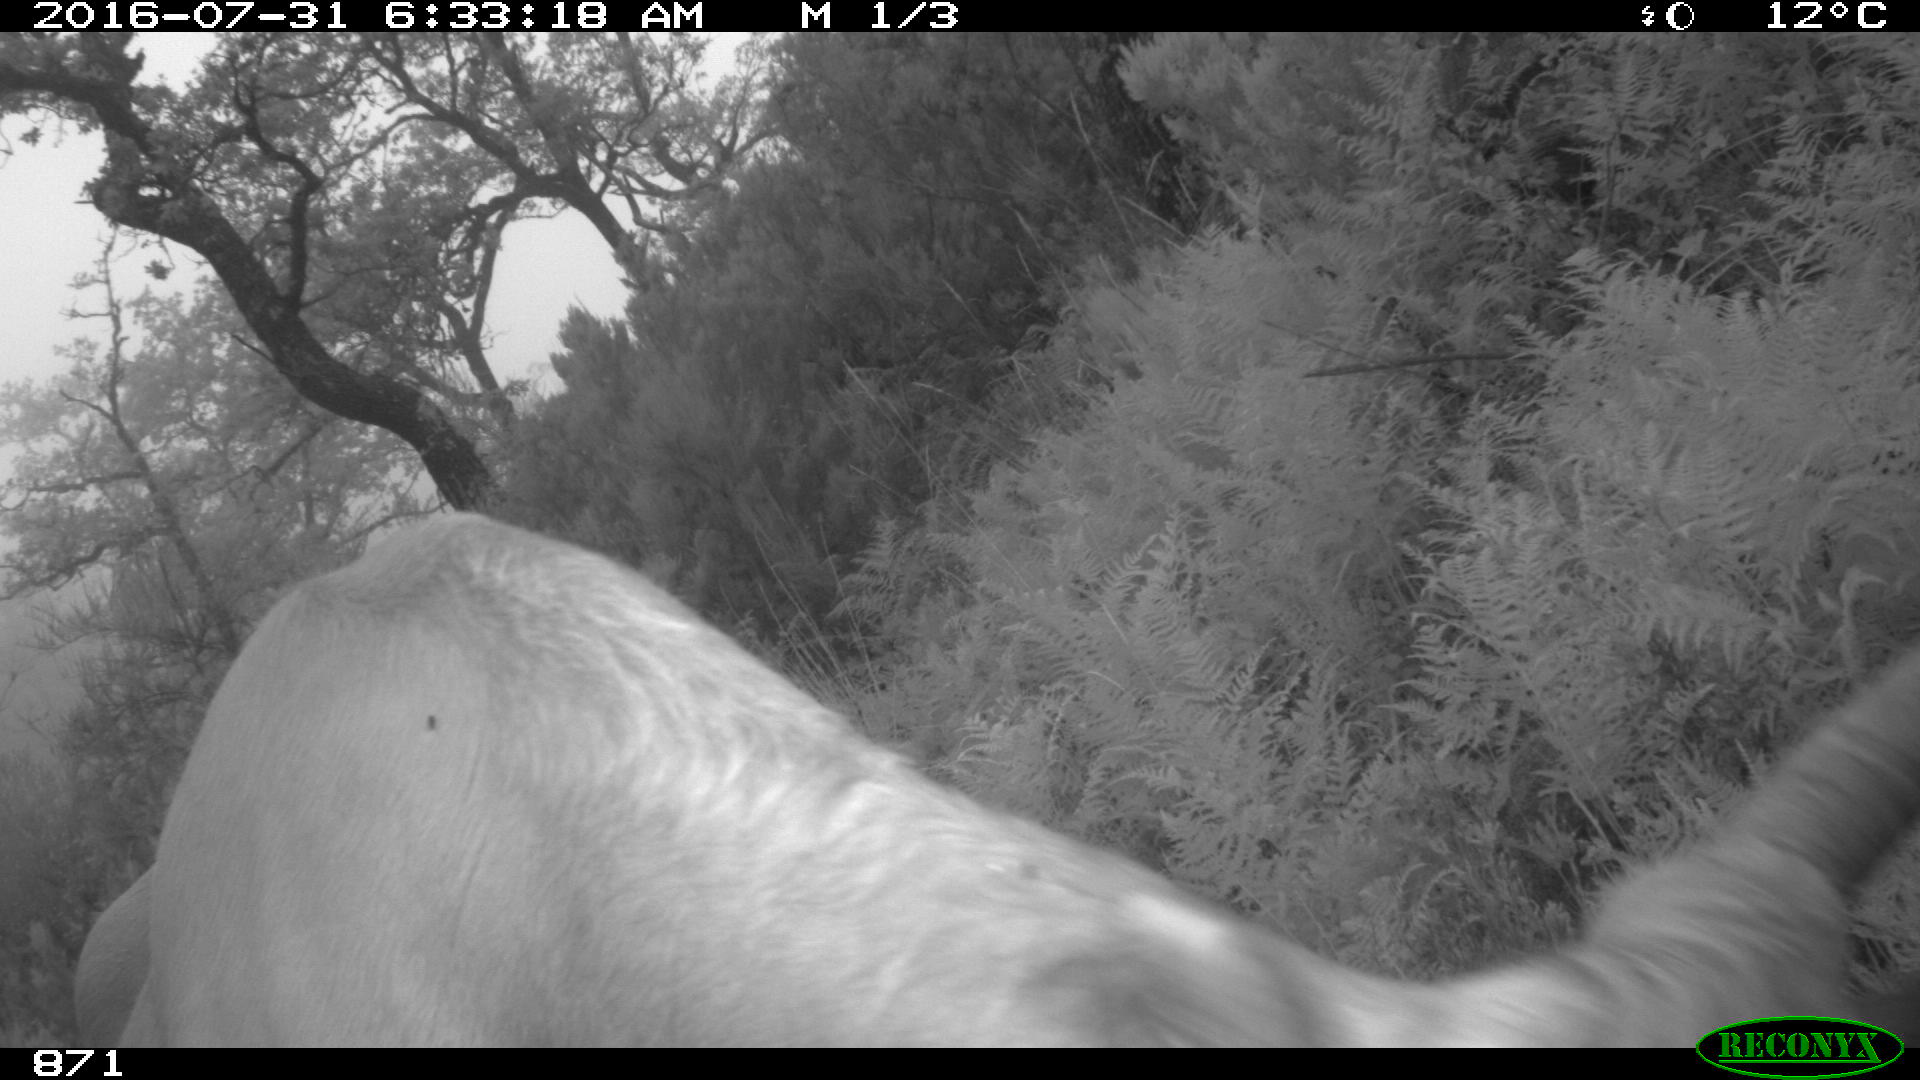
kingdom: Animalia
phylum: Chordata
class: Mammalia
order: Artiodactyla
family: Bovidae
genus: Bos
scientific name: Bos taurus
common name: Domesticated cattle
